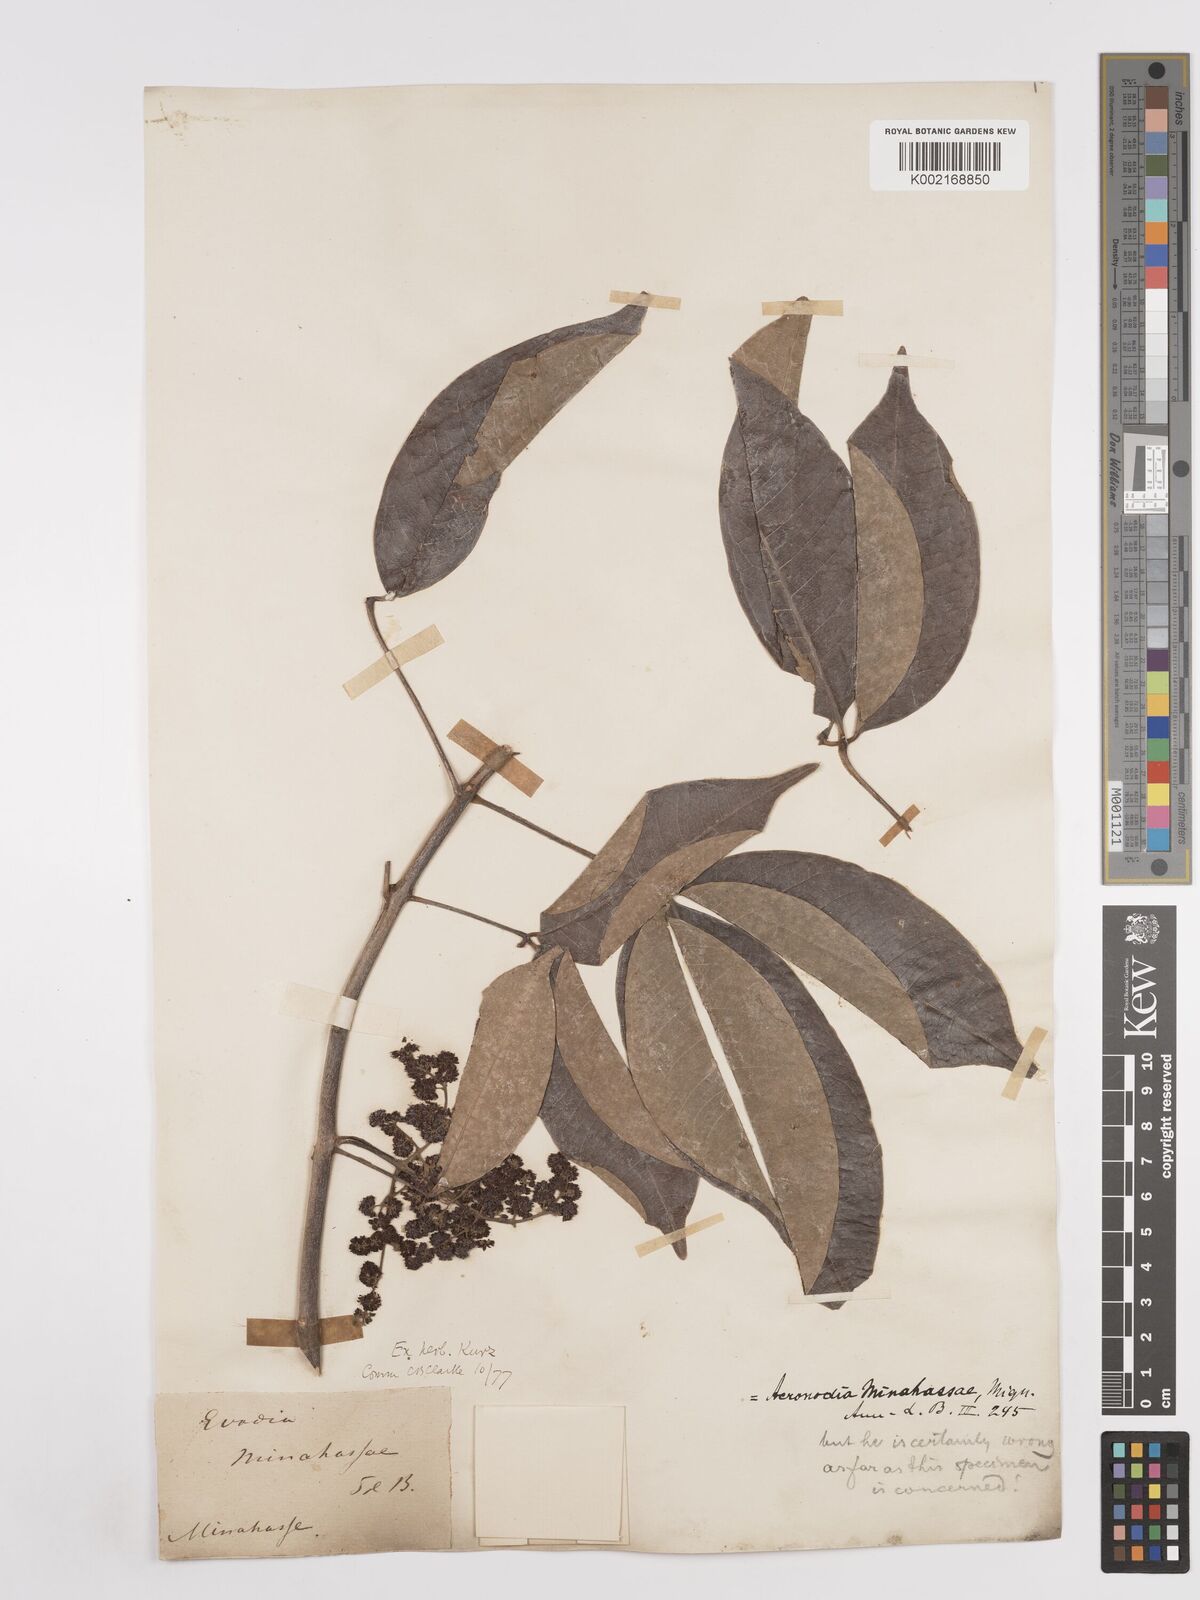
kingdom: Plantae
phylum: Tracheophyta
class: Magnoliopsida
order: Sapindales
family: Rutaceae
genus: Melicope
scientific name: Melicope triphylla
